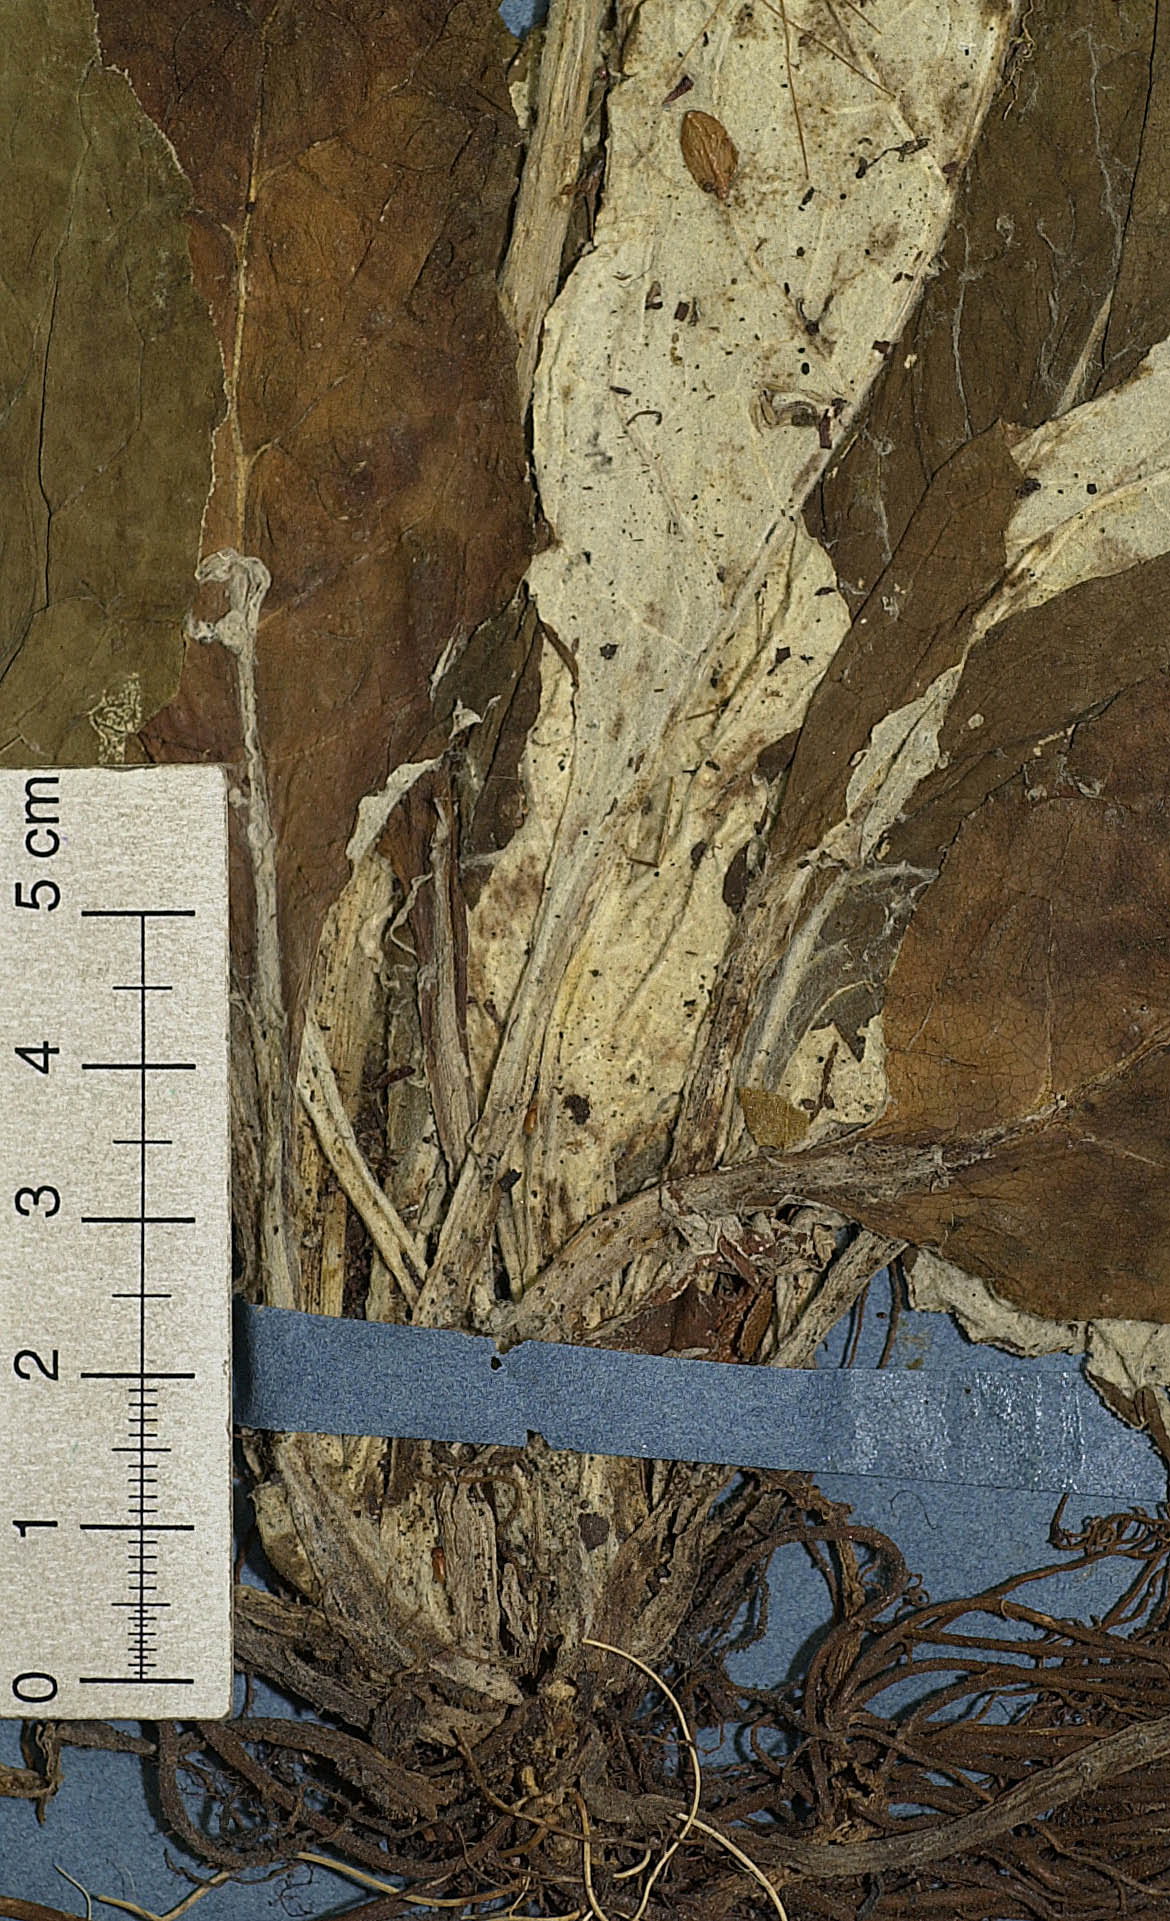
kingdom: Plantae
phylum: Tracheophyta
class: Magnoliopsida
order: Asterales
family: Asteraceae
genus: Adenocaulon
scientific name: Adenocaulon chilense
